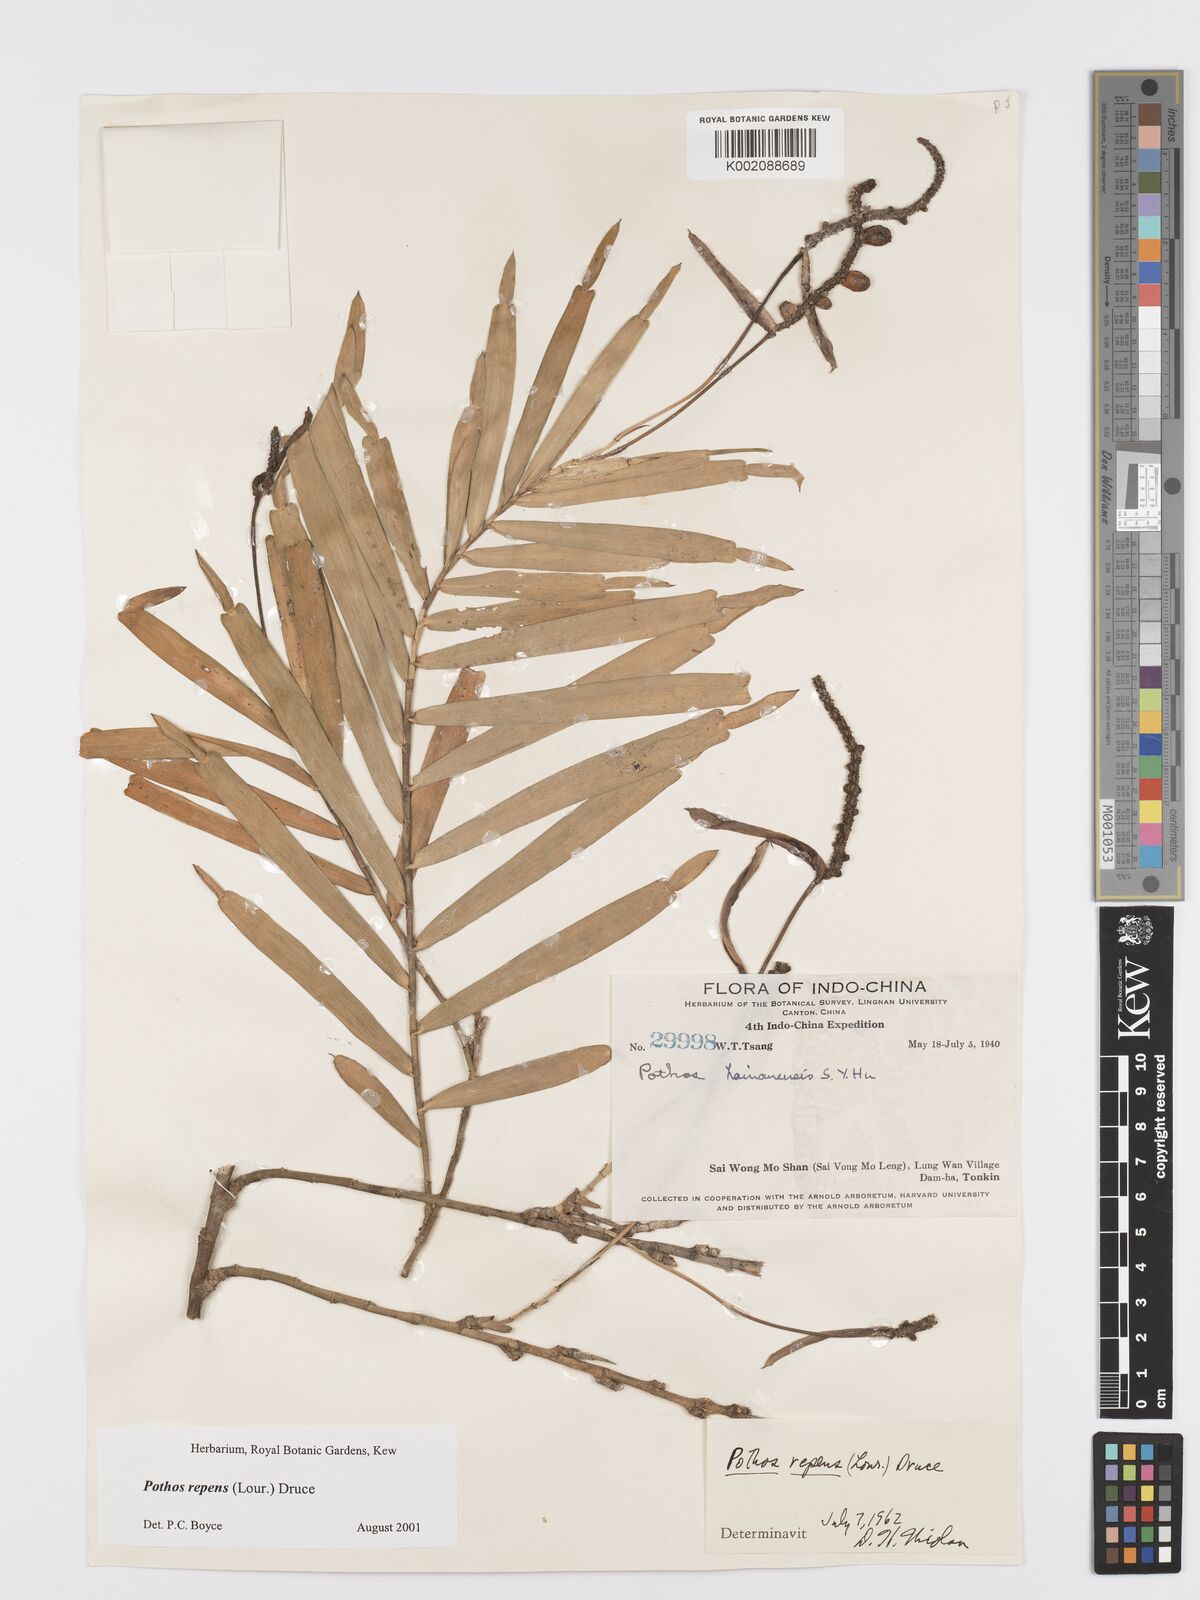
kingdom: Plantae
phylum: Tracheophyta
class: Liliopsida
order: Alismatales
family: Araceae
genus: Pothos
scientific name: Pothos repens
